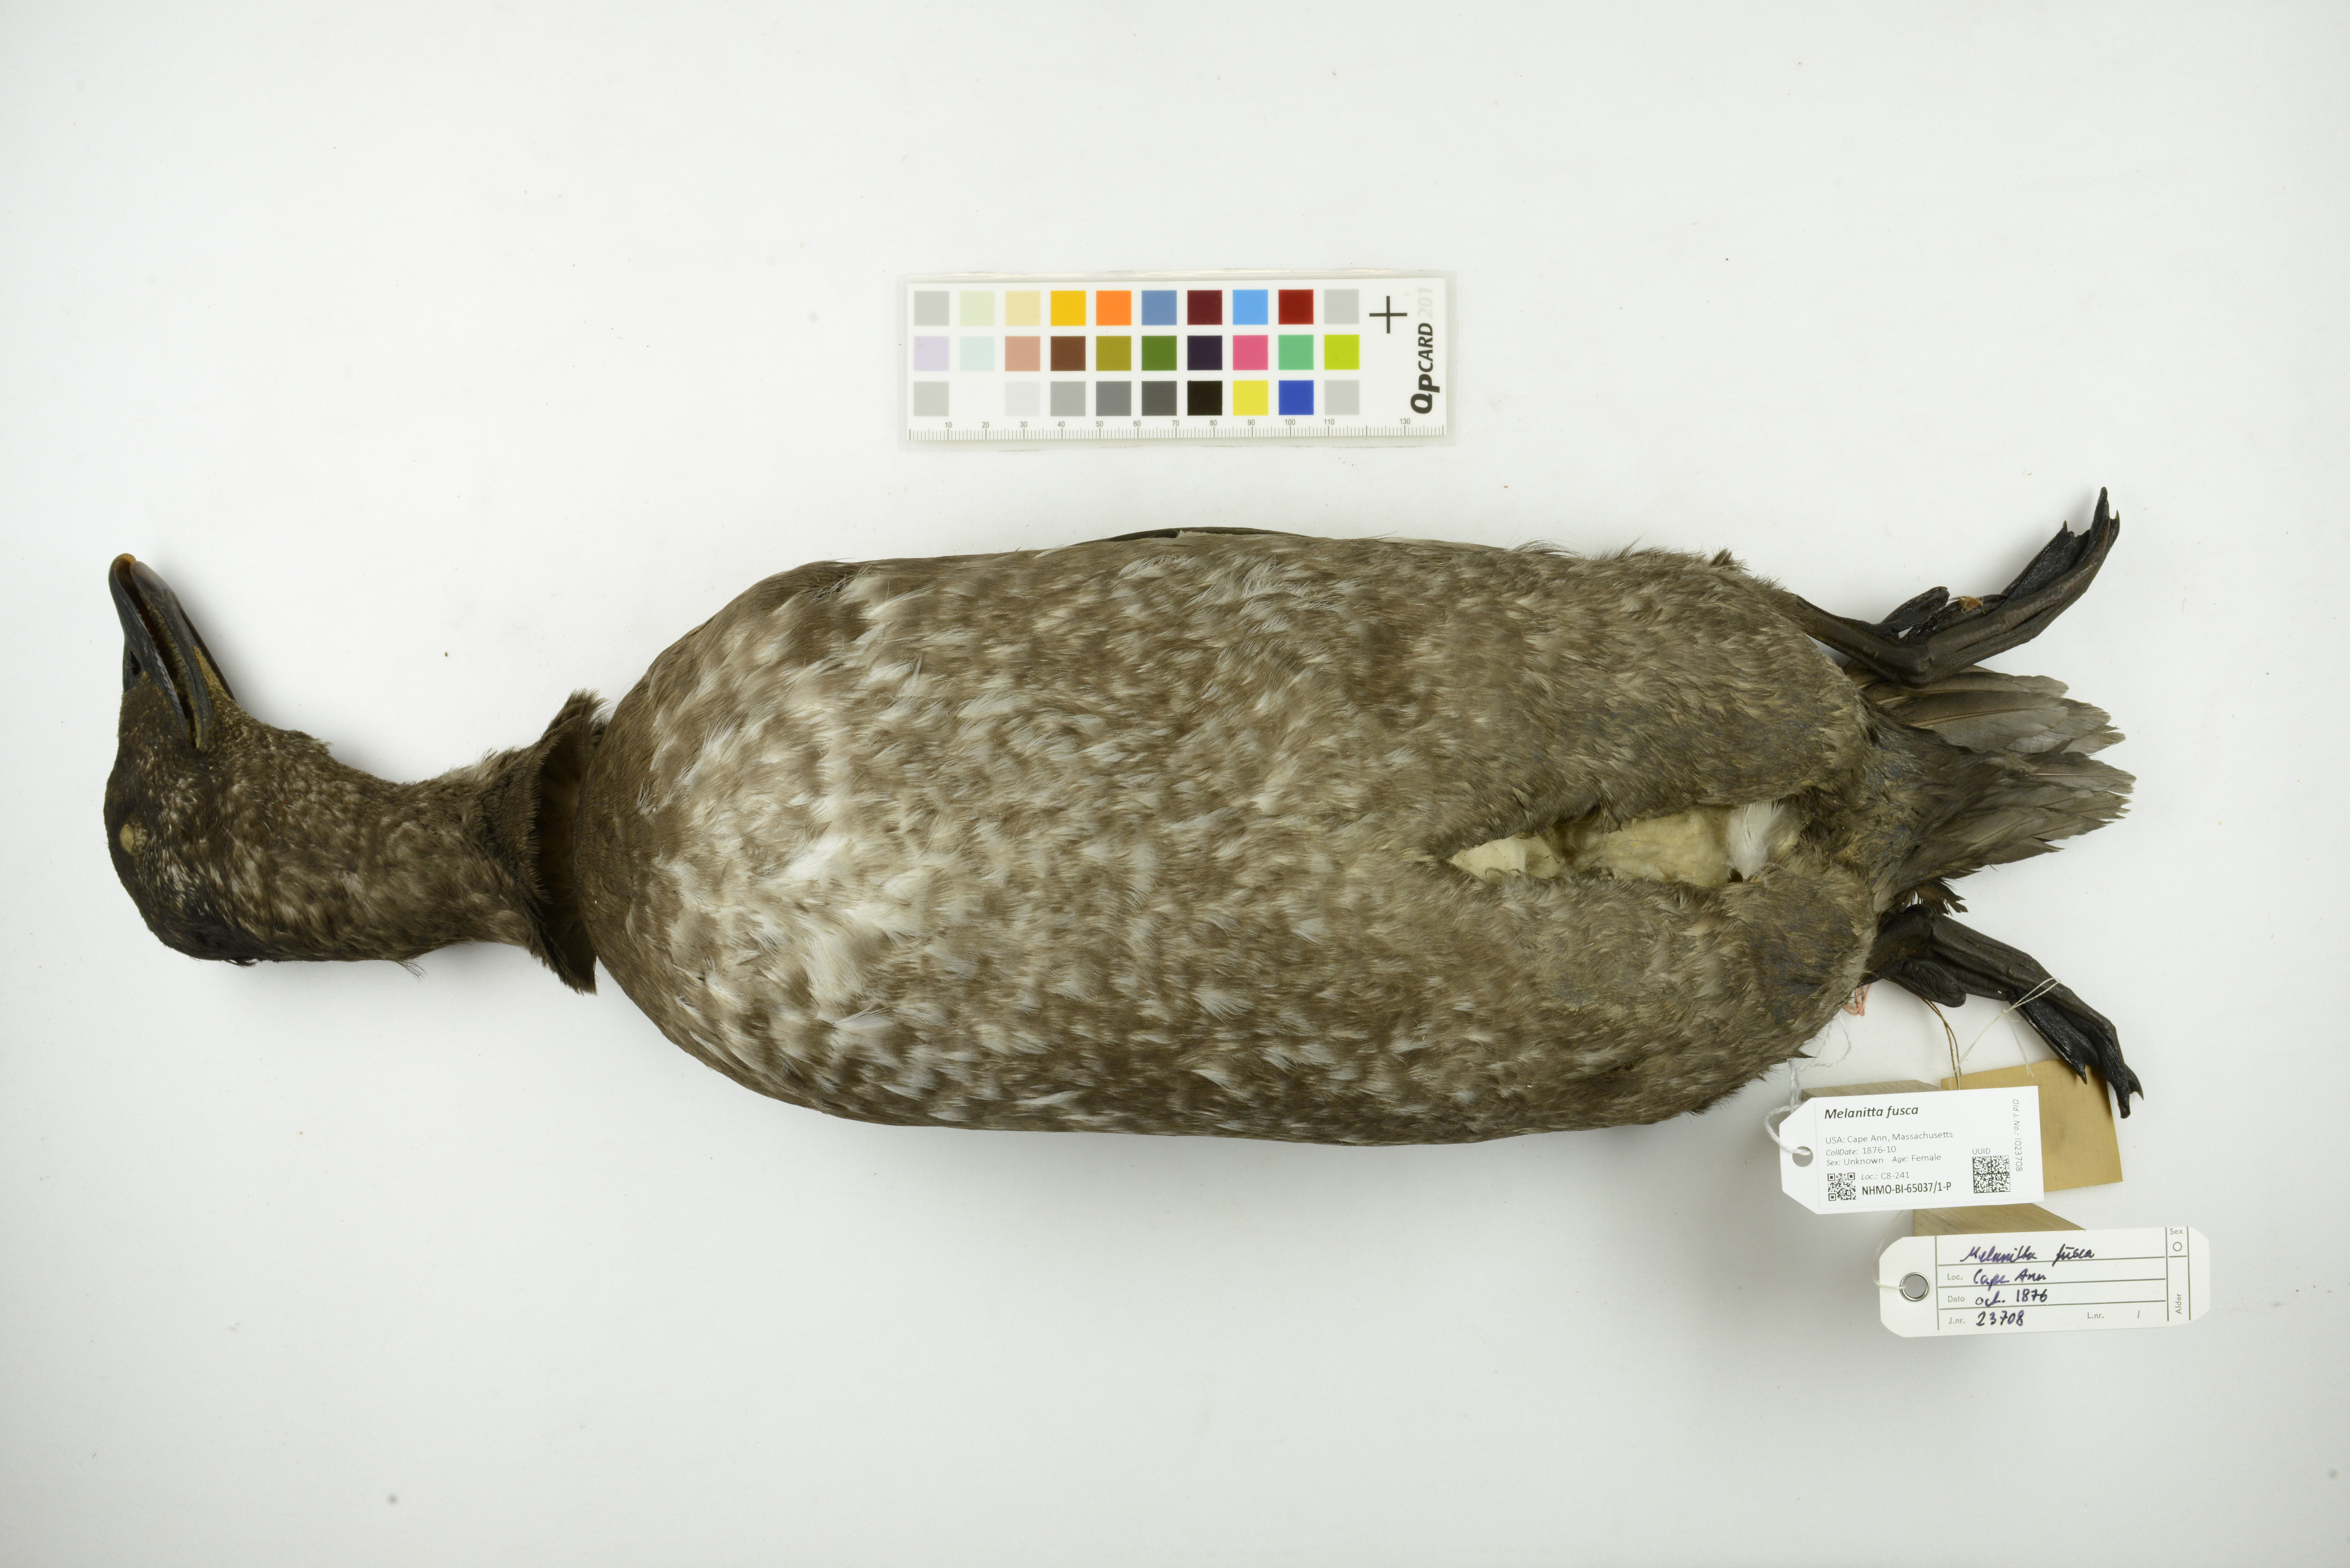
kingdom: Animalia
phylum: Chordata
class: Aves
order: Anseriformes
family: Anatidae
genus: Melanitta
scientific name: Melanitta fusca
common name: Velvet scoter
